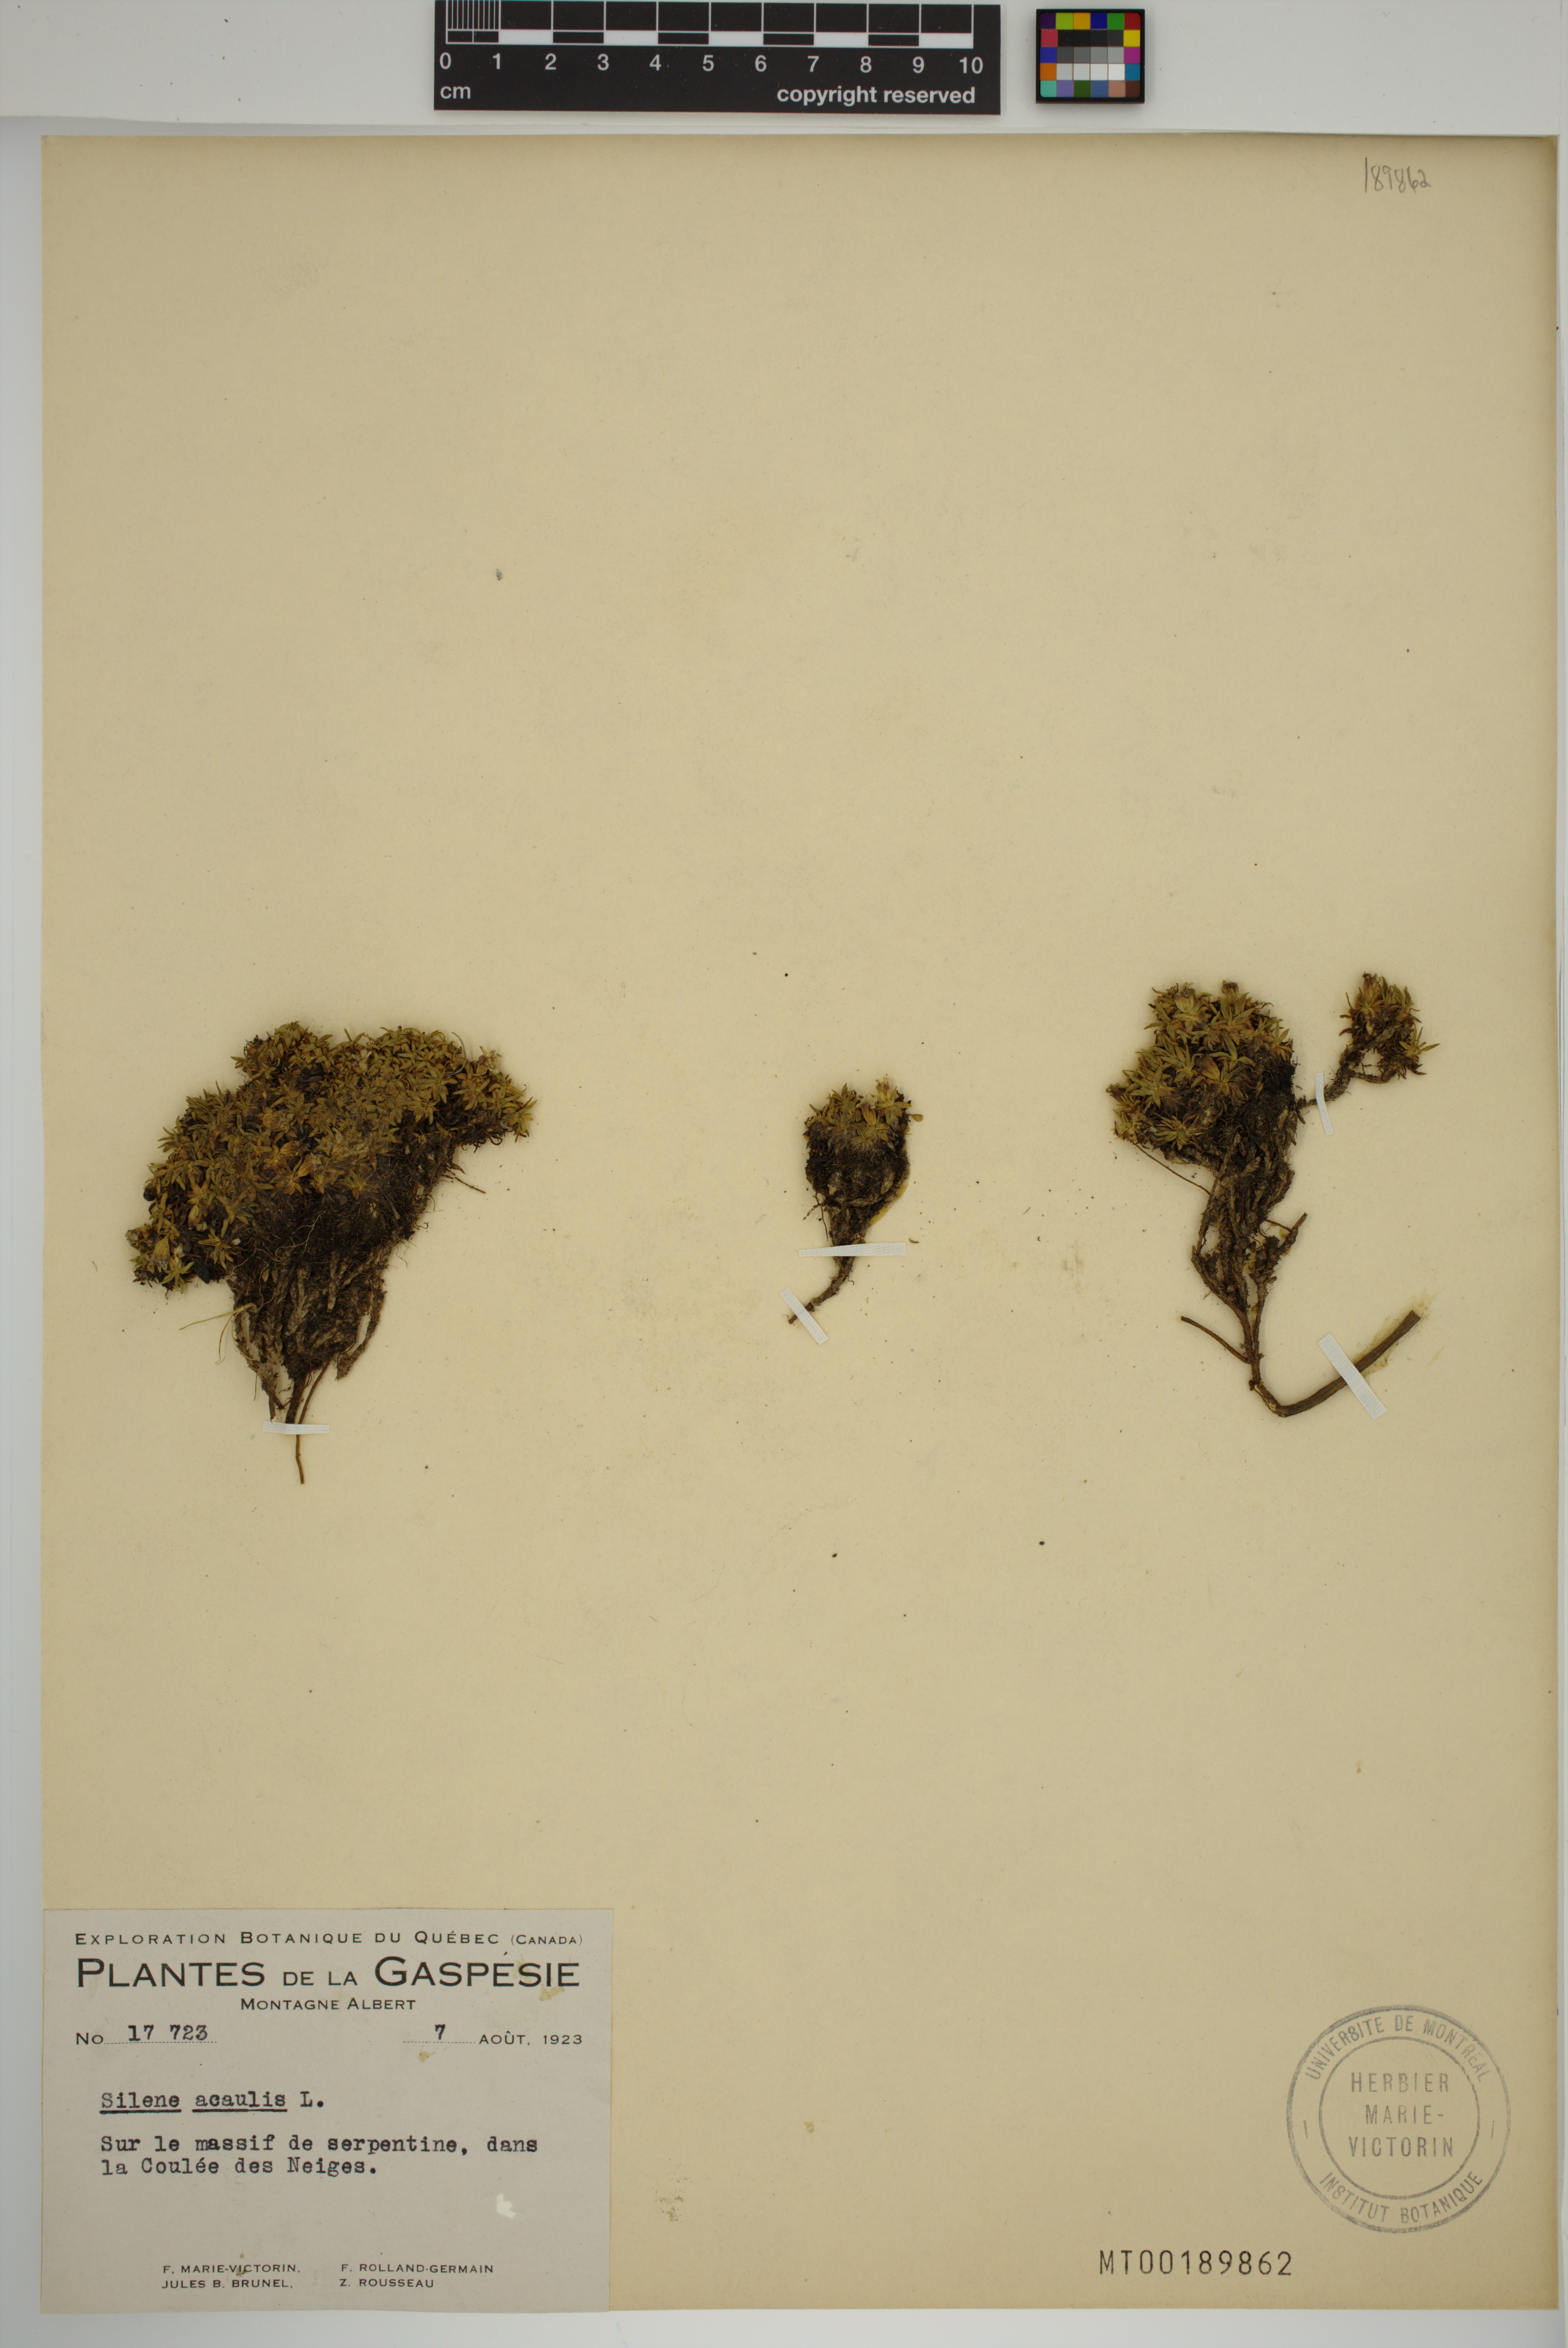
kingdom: Plantae
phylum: Tracheophyta
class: Magnoliopsida
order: Caryophyllales
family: Caryophyllaceae
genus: Silene
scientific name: Silene acaulis
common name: Moss campion
